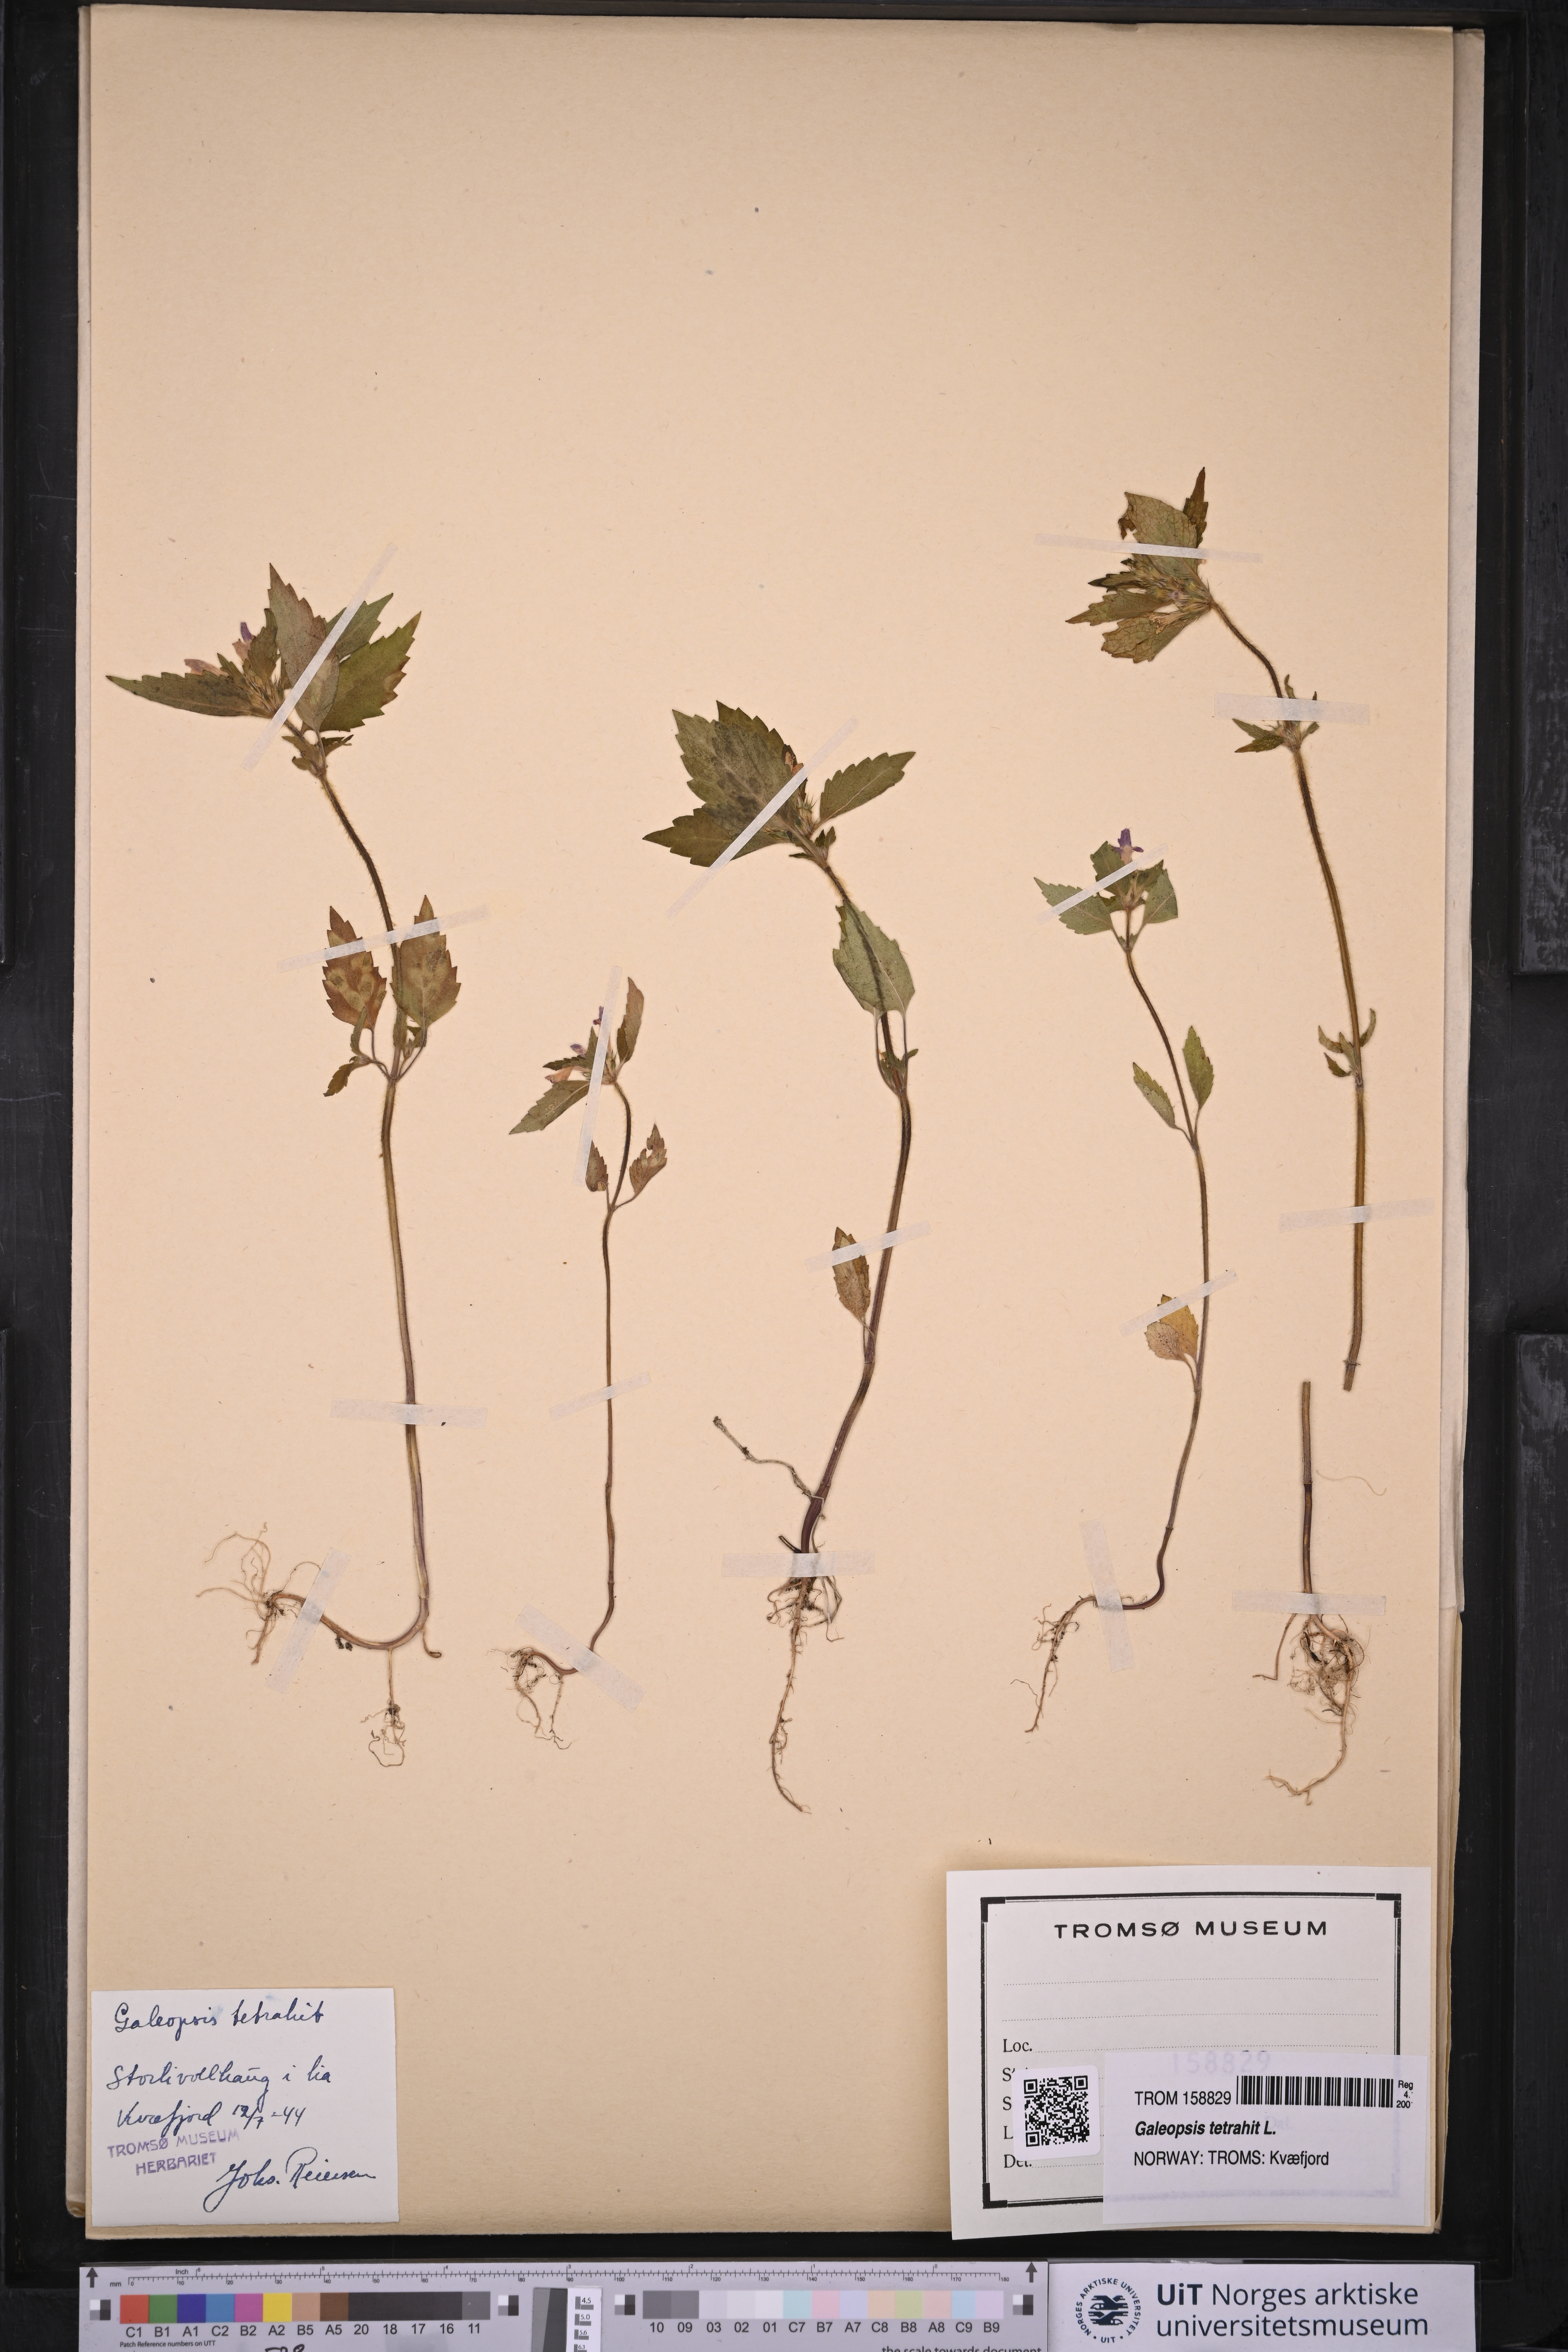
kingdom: Plantae
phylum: Tracheophyta
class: Magnoliopsida
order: Lamiales
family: Lamiaceae
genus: Galeopsis
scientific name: Galeopsis tetrahit
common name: Common hemp-nettle
